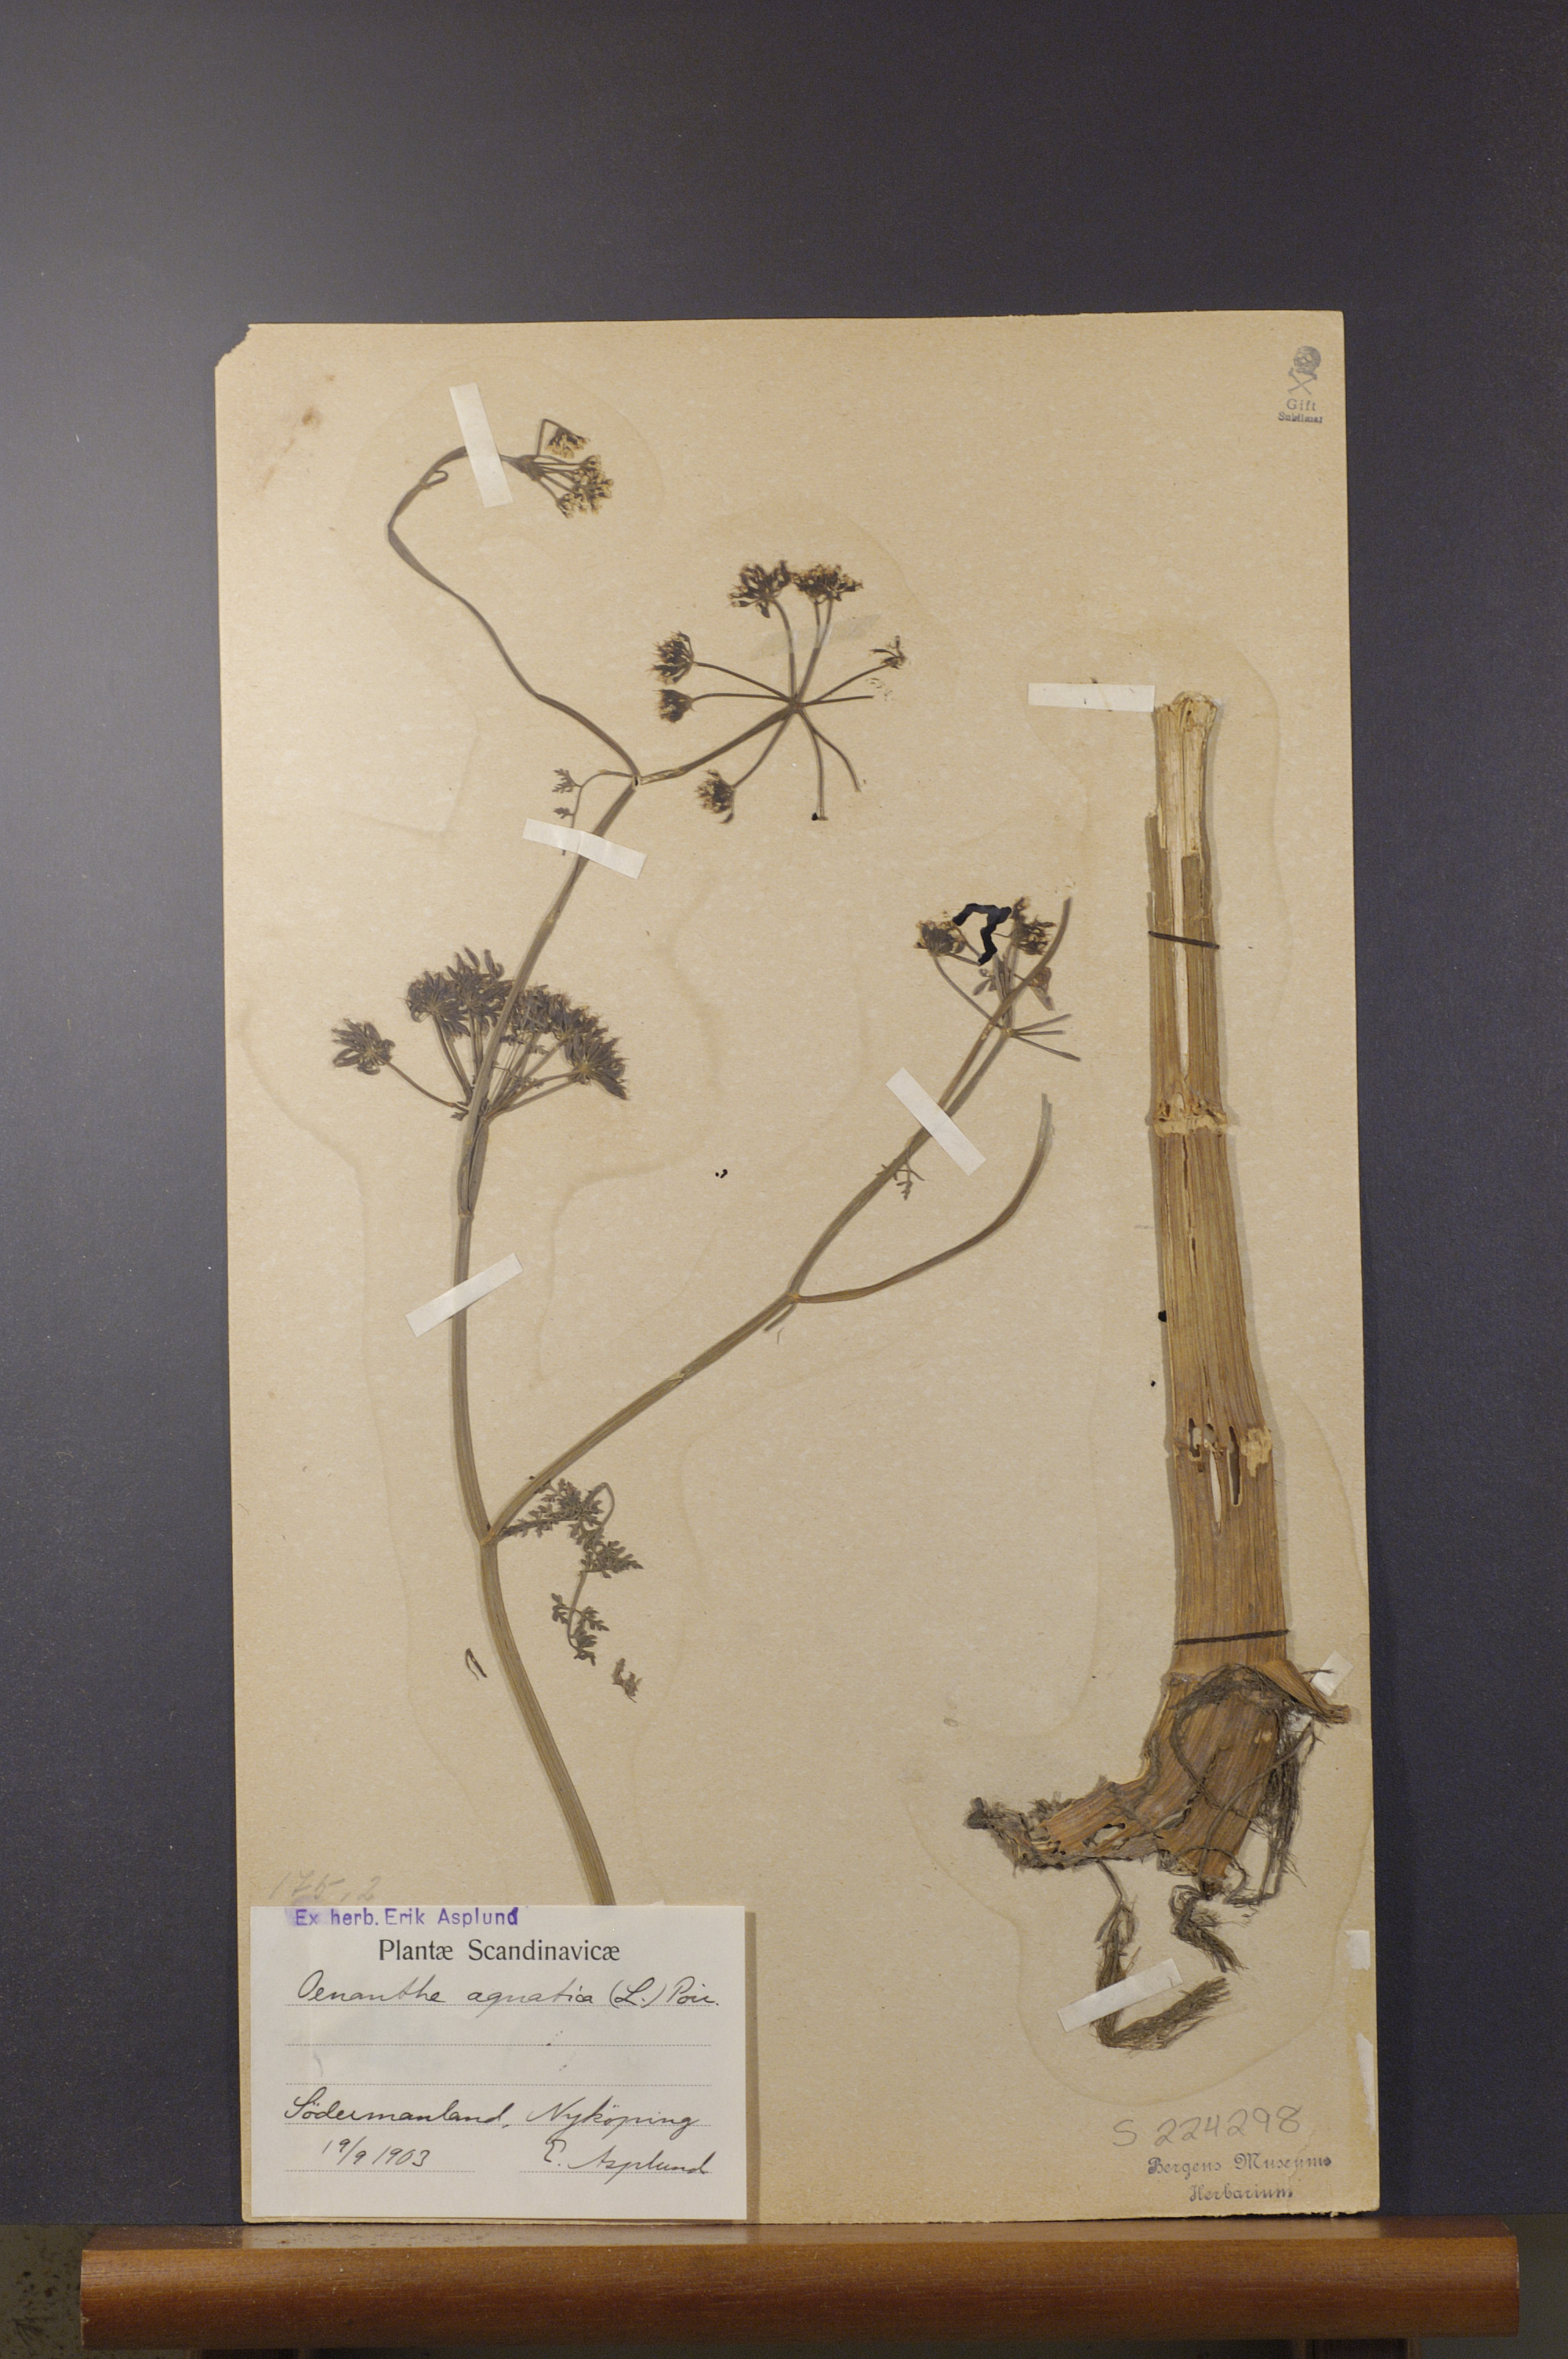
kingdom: Plantae
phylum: Tracheophyta
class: Magnoliopsida
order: Apiales
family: Apiaceae
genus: Oenanthe
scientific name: Oenanthe aquatica
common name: Fine-leaved water-dropwort
